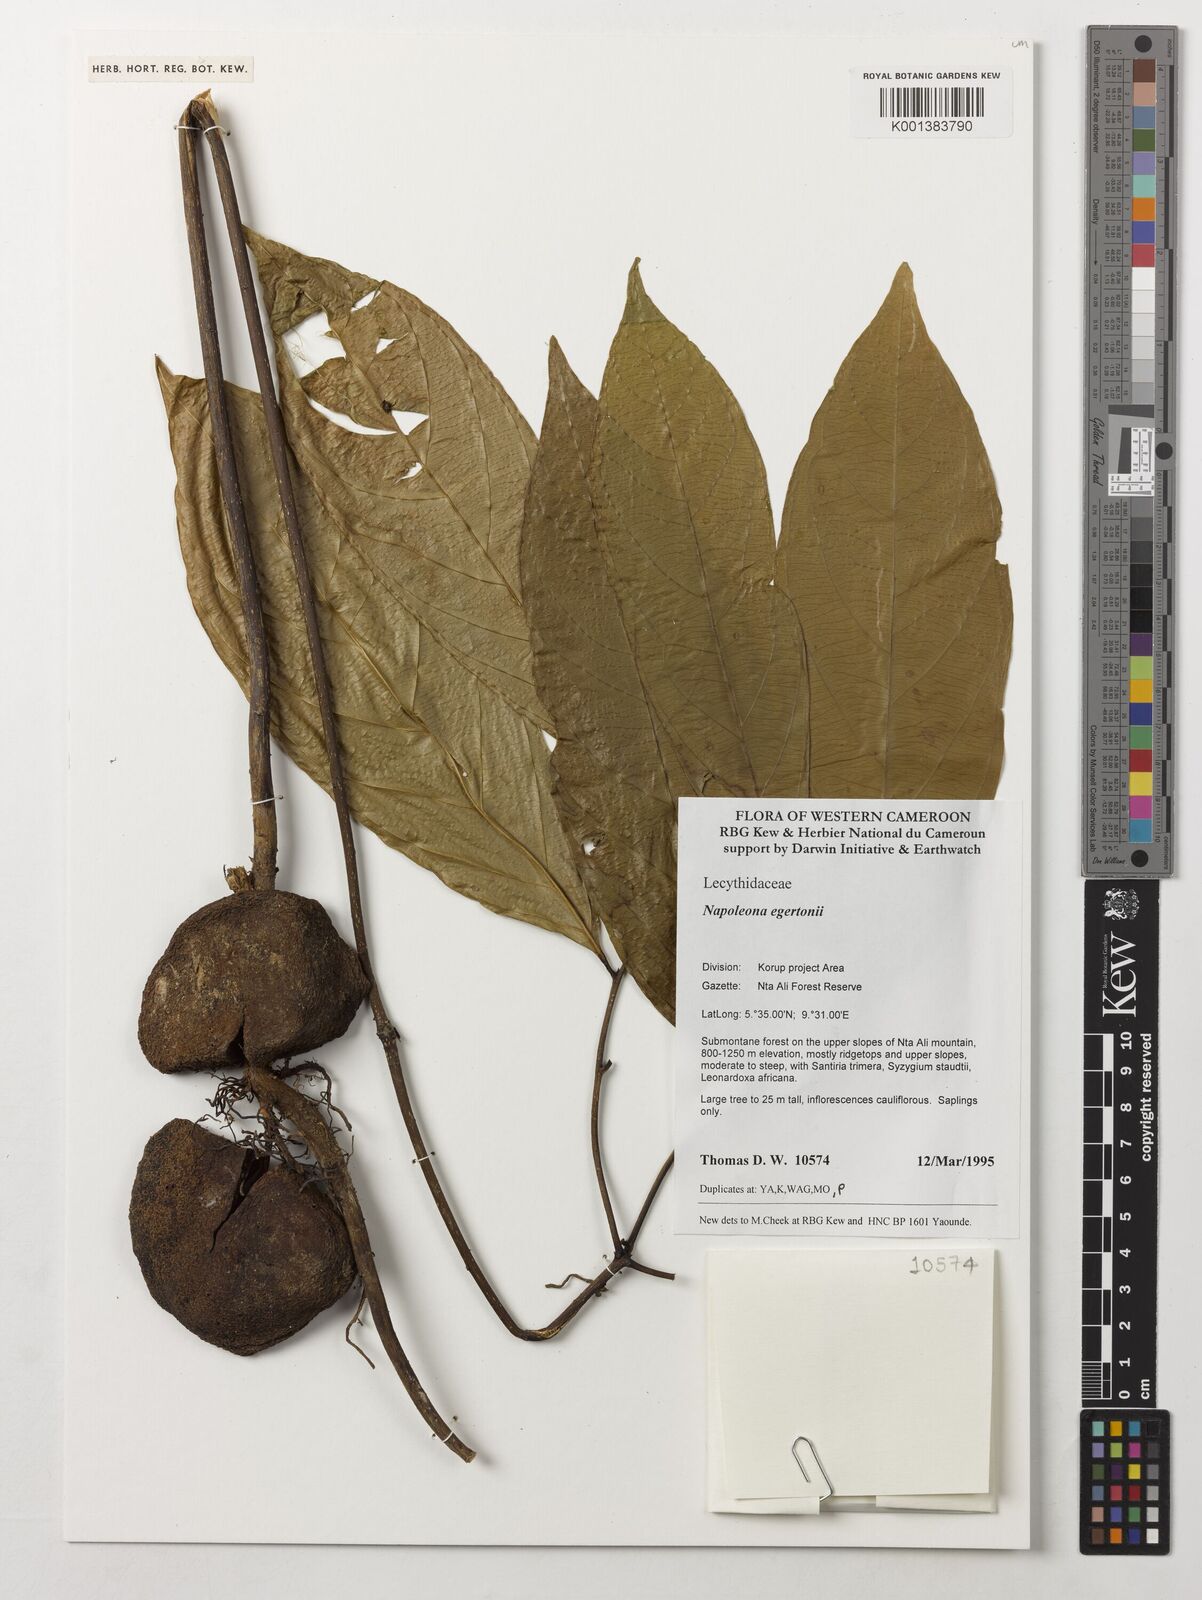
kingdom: Plantae
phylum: Tracheophyta
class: Magnoliopsida
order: Ericales
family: Lecythidaceae
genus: Napoleonaea
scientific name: Napoleonaea egertonii
